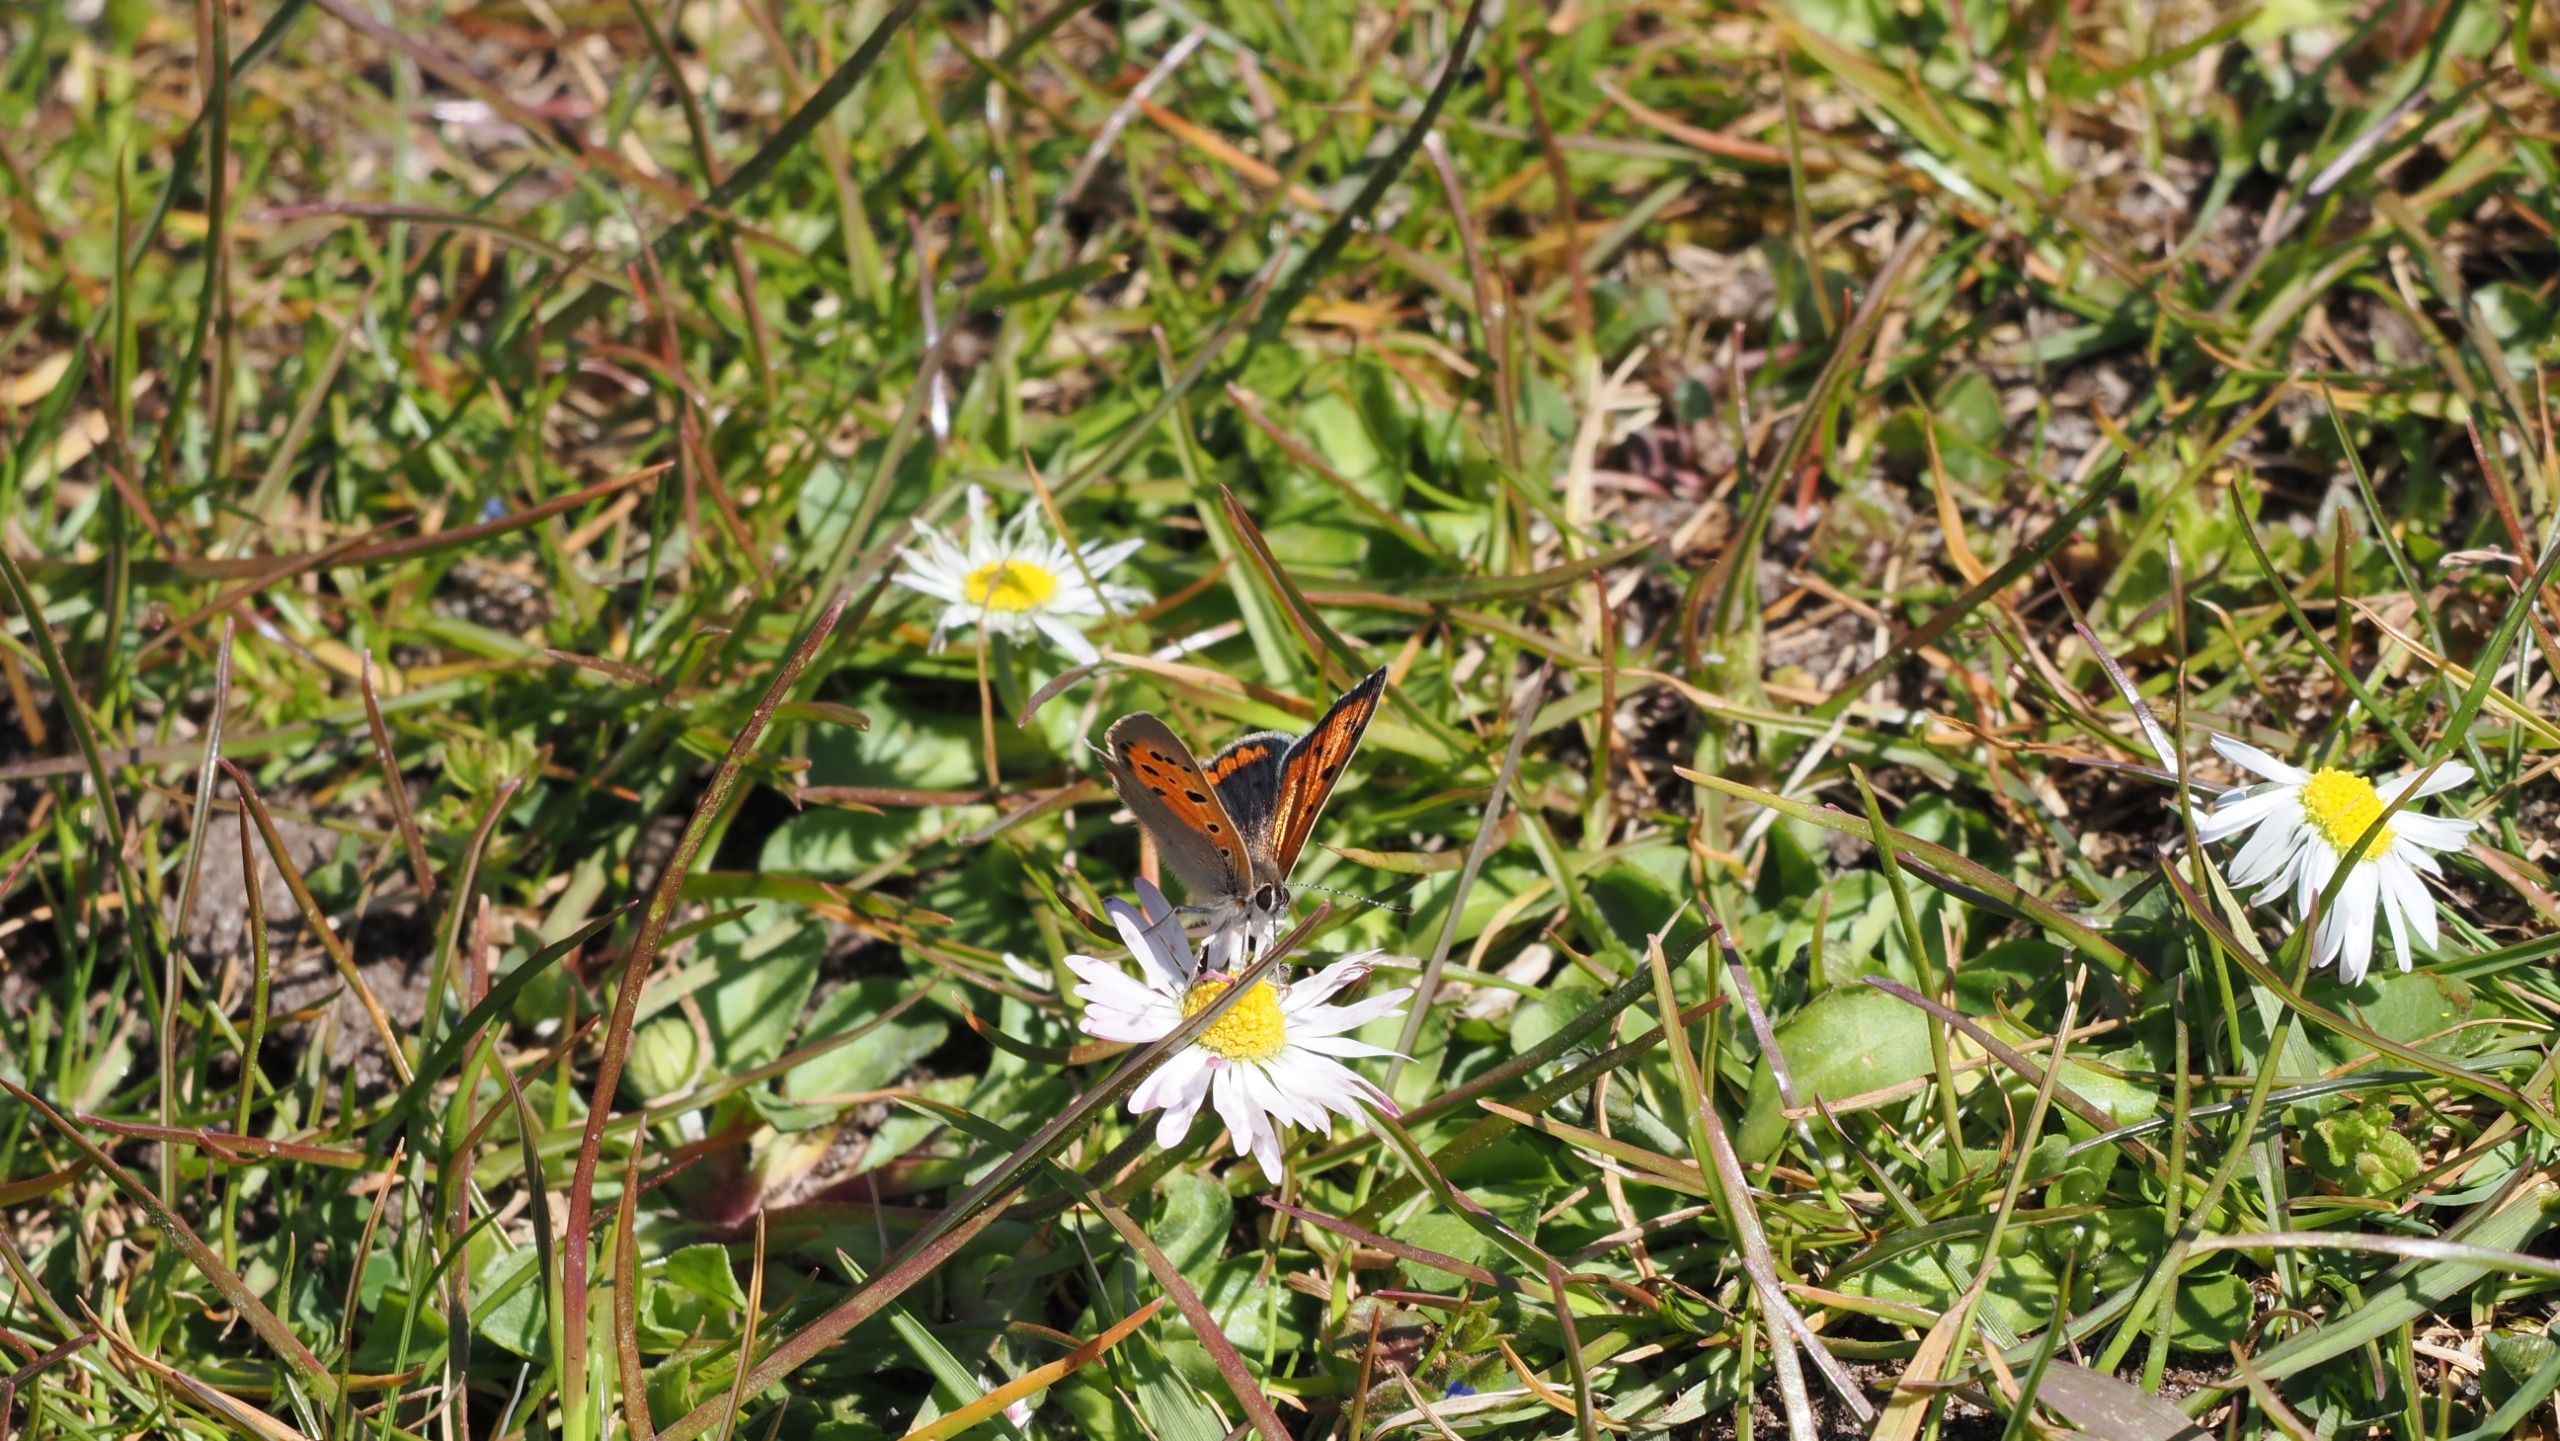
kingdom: Animalia
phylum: Arthropoda
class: Insecta
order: Lepidoptera
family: Lycaenidae
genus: Lycaena
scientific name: Lycaena phlaeas
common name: Lille ildfugl
